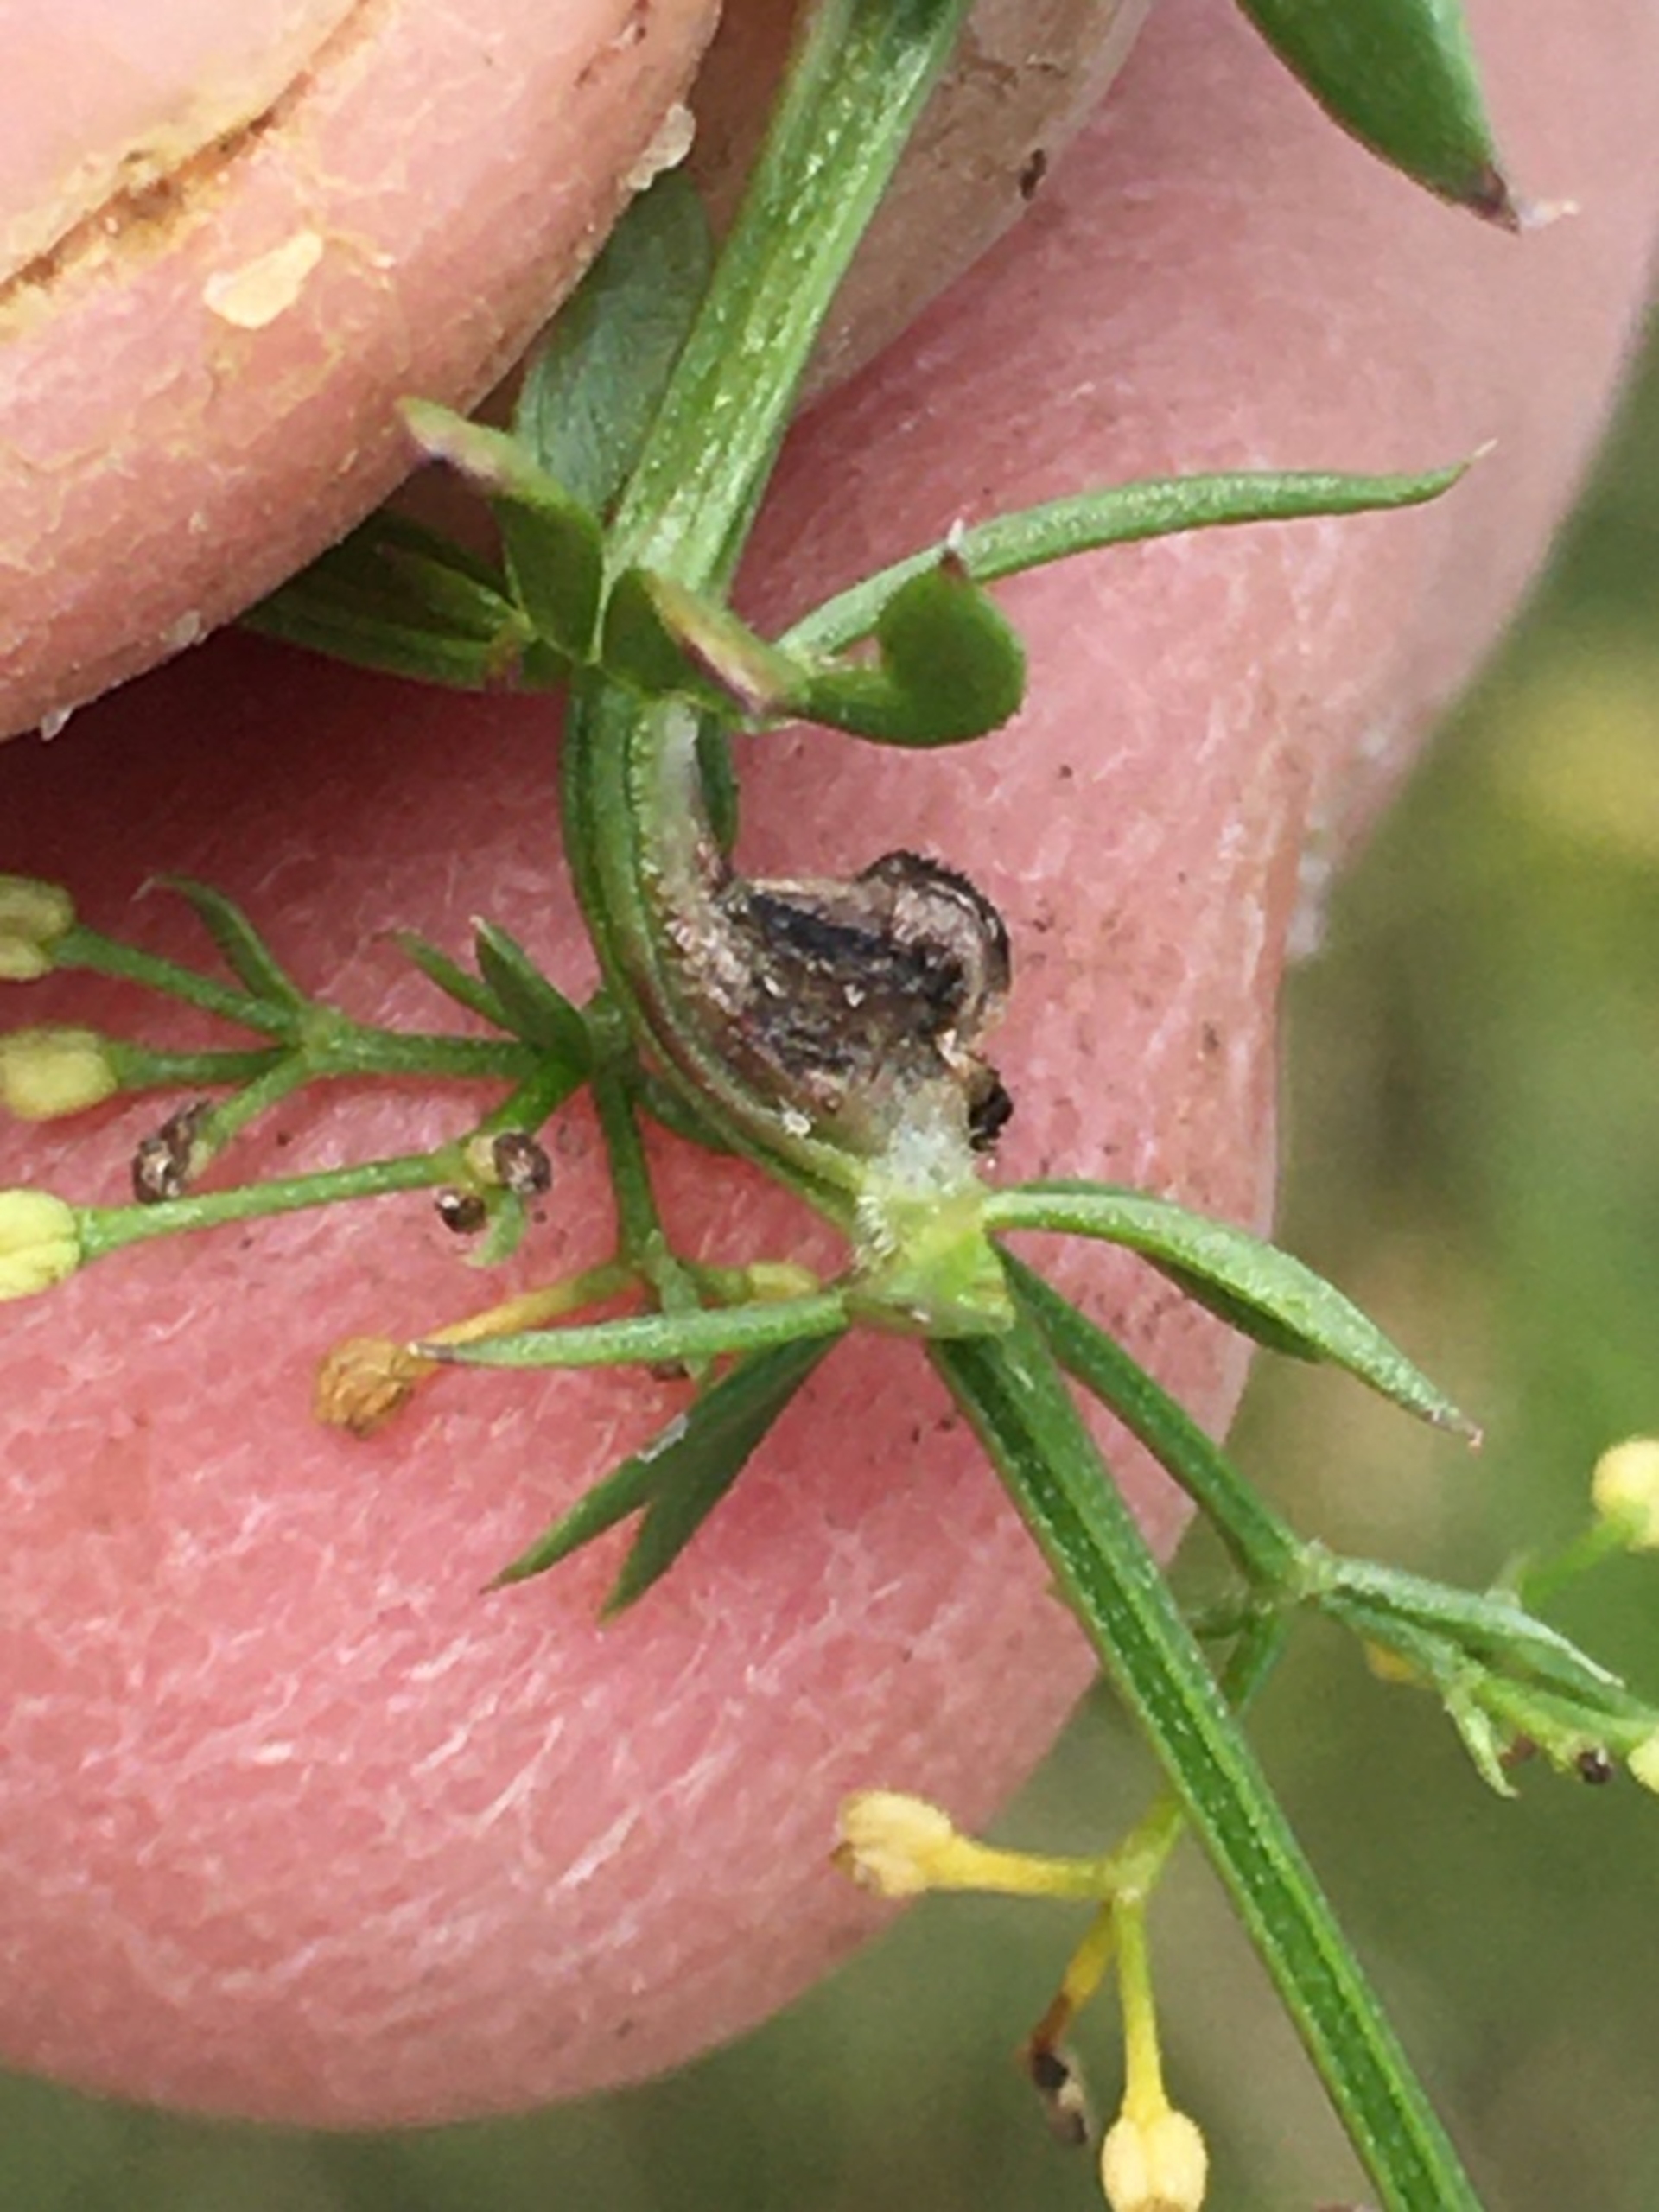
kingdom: Animalia
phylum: Arthropoda
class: Insecta
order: Diptera
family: Cecidomyiidae
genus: Geocrypta
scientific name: Geocrypta rostriformis
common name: Ørnenæsegalmyg
